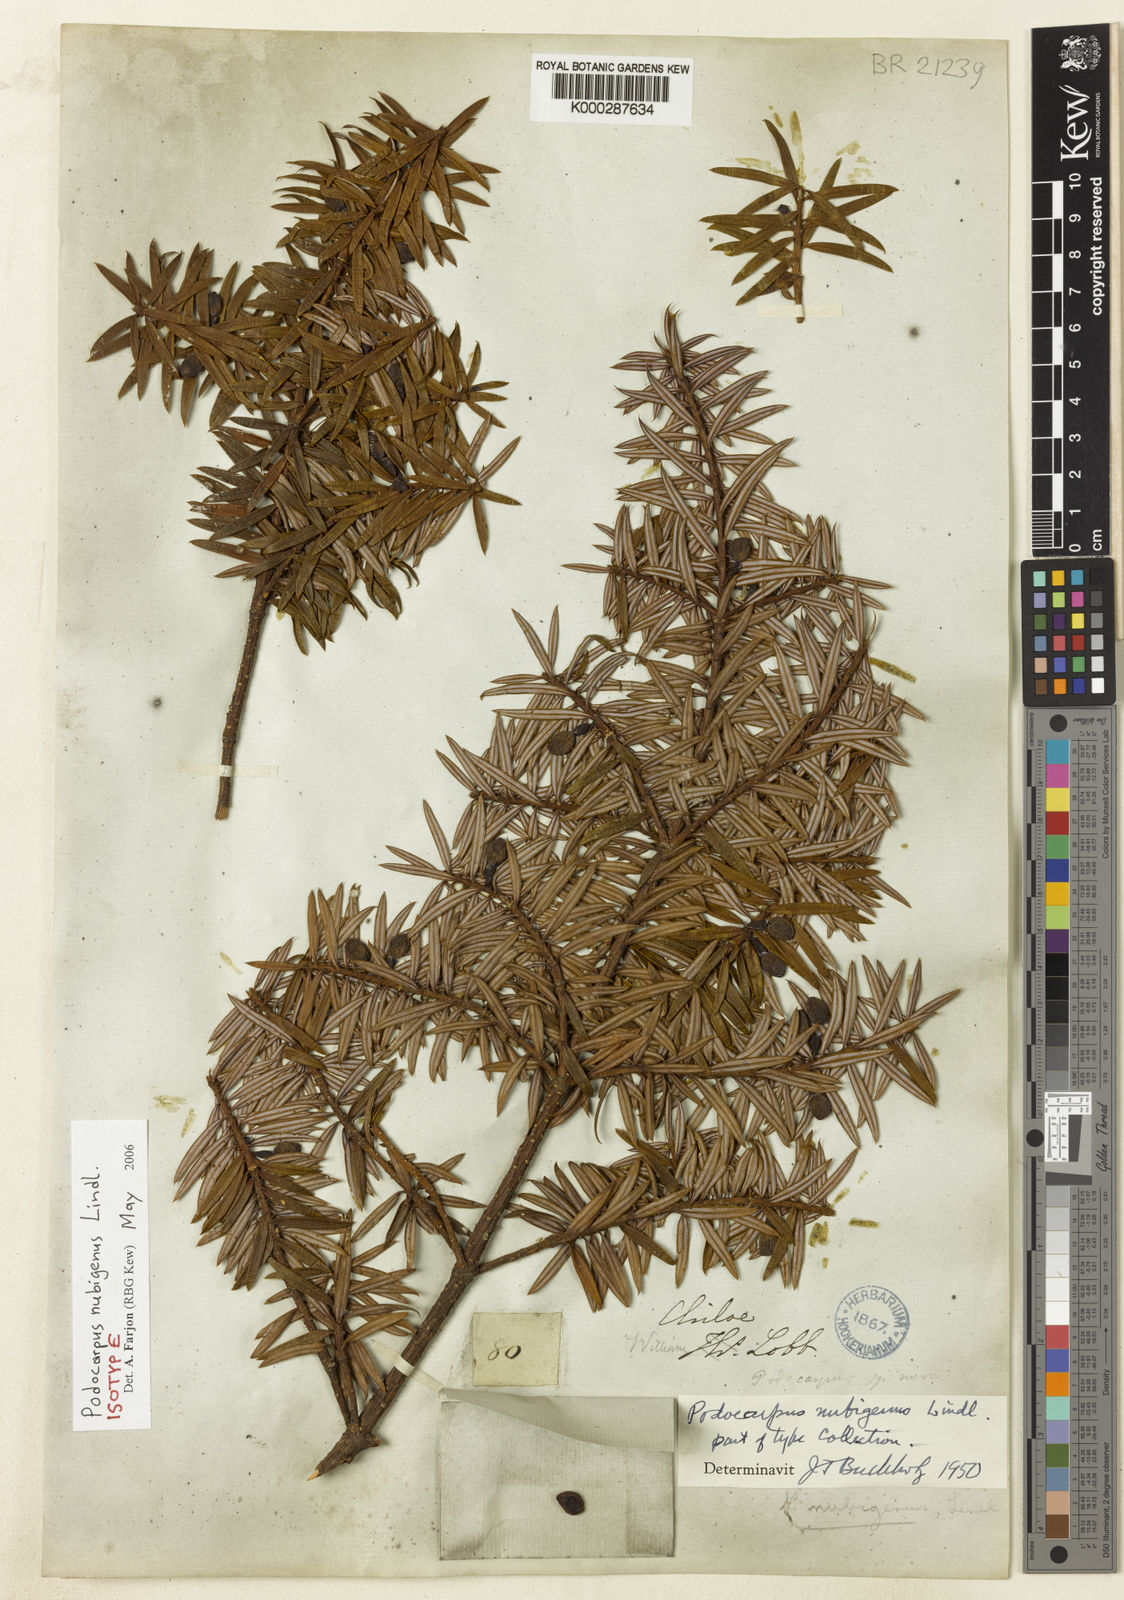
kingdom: Plantae
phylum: Tracheophyta
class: Pinopsida
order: Pinales
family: Podocarpaceae
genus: Podocarpus
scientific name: Podocarpus nubigenus
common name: Cloud podocarp
